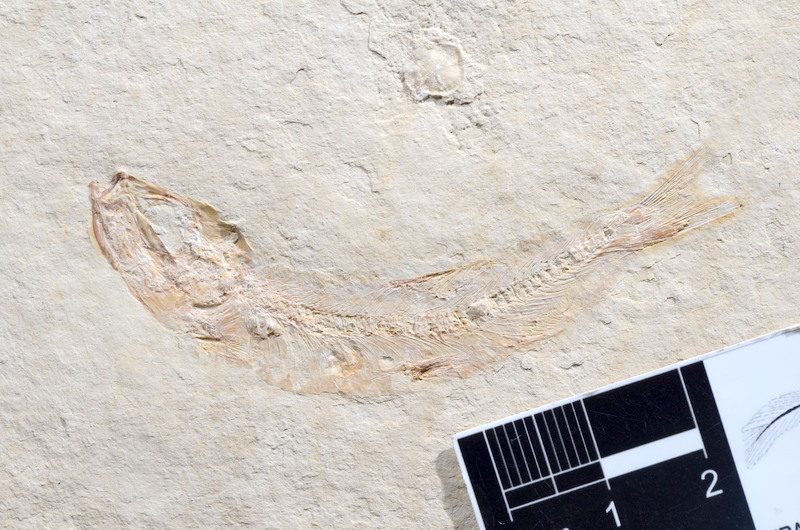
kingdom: Animalia
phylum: Chordata
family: Ascalaboidae
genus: Tharsis
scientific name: Tharsis dubius
